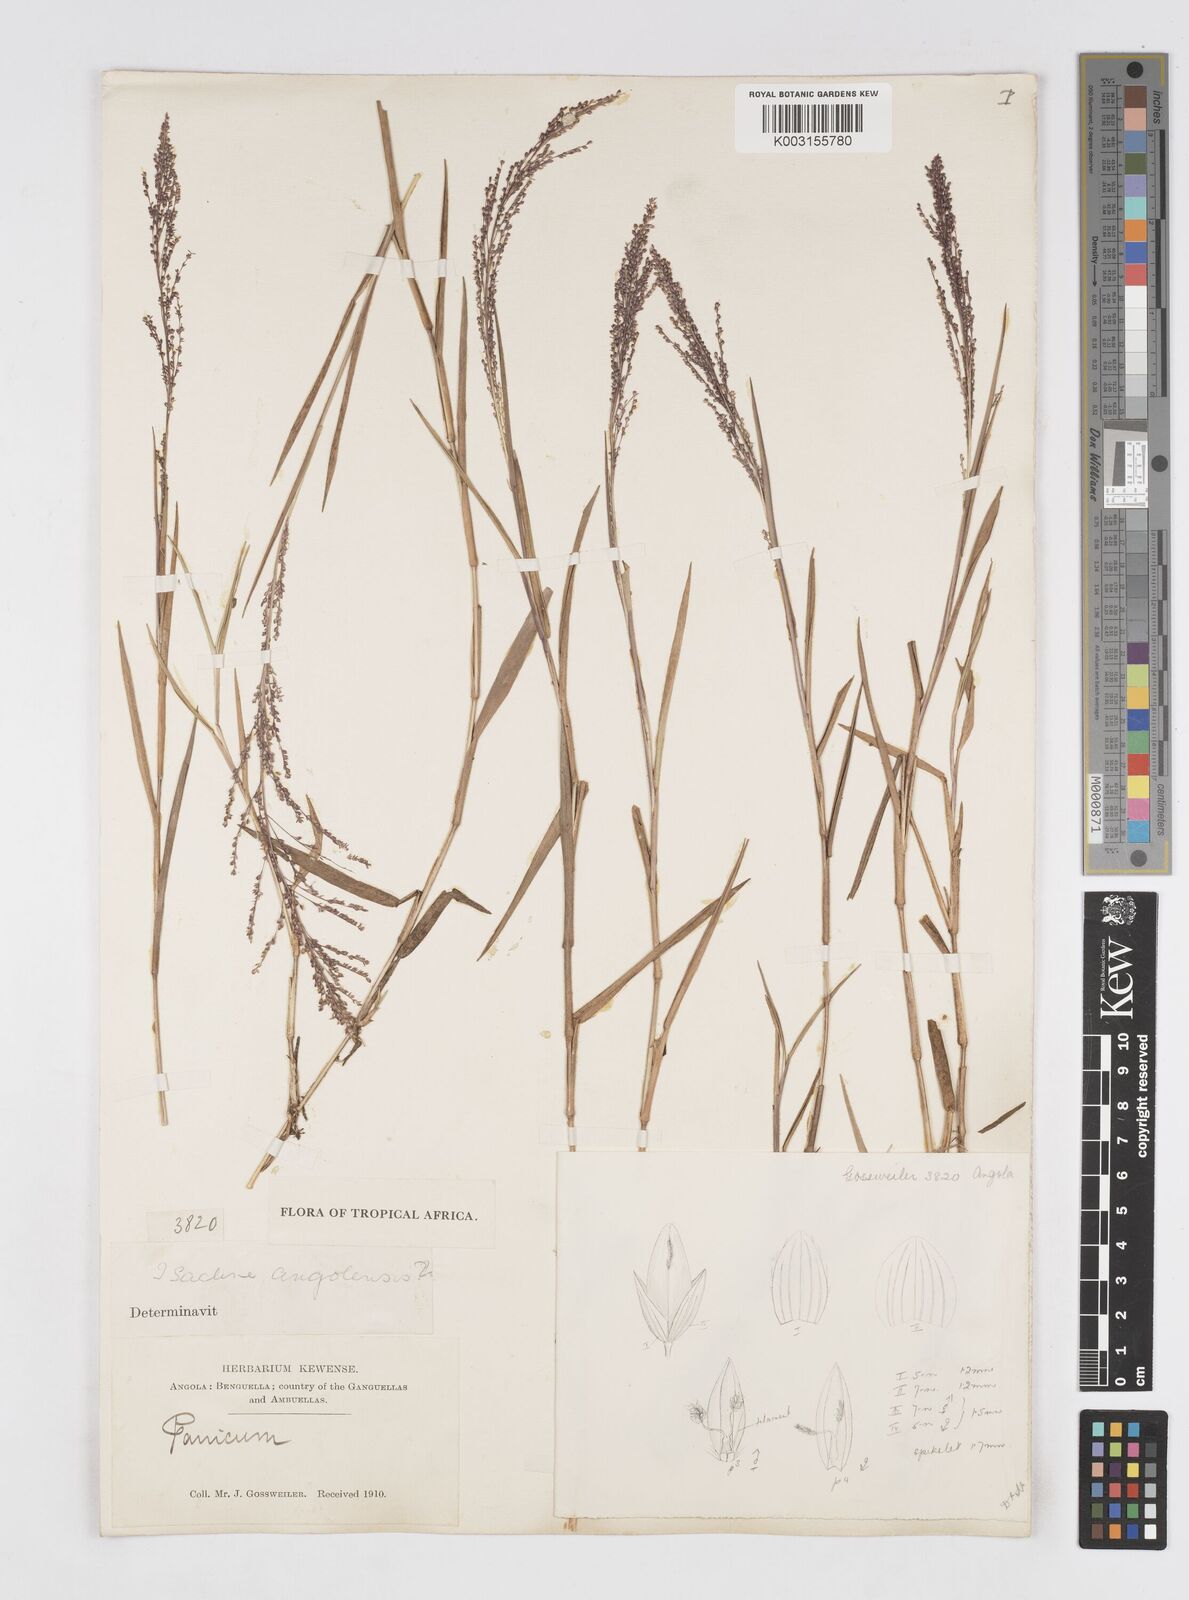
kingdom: Plantae
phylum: Tracheophyta
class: Liliopsida
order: Poales
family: Poaceae
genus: Isachne
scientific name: Isachne angolensis
